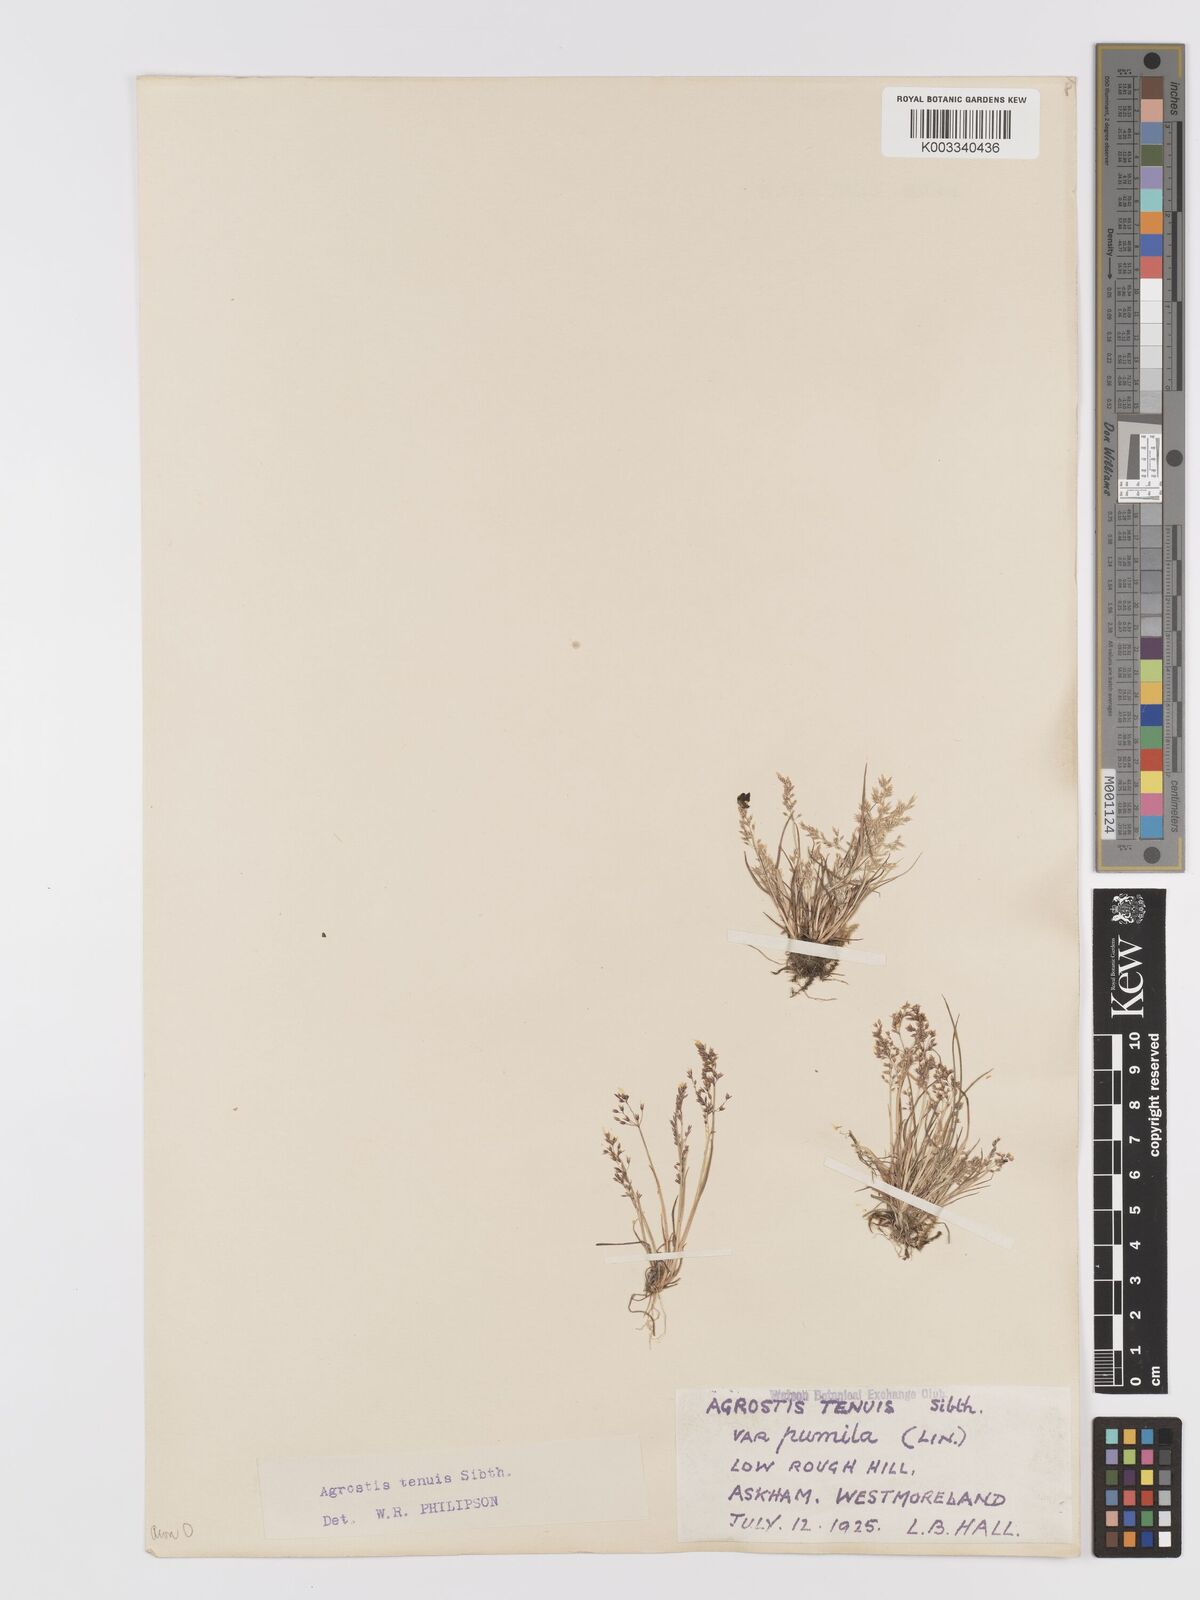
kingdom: Plantae
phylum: Tracheophyta
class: Liliopsida
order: Poales
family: Poaceae
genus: Agrostis
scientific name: Agrostis capillaris
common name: Colonial bentgrass
